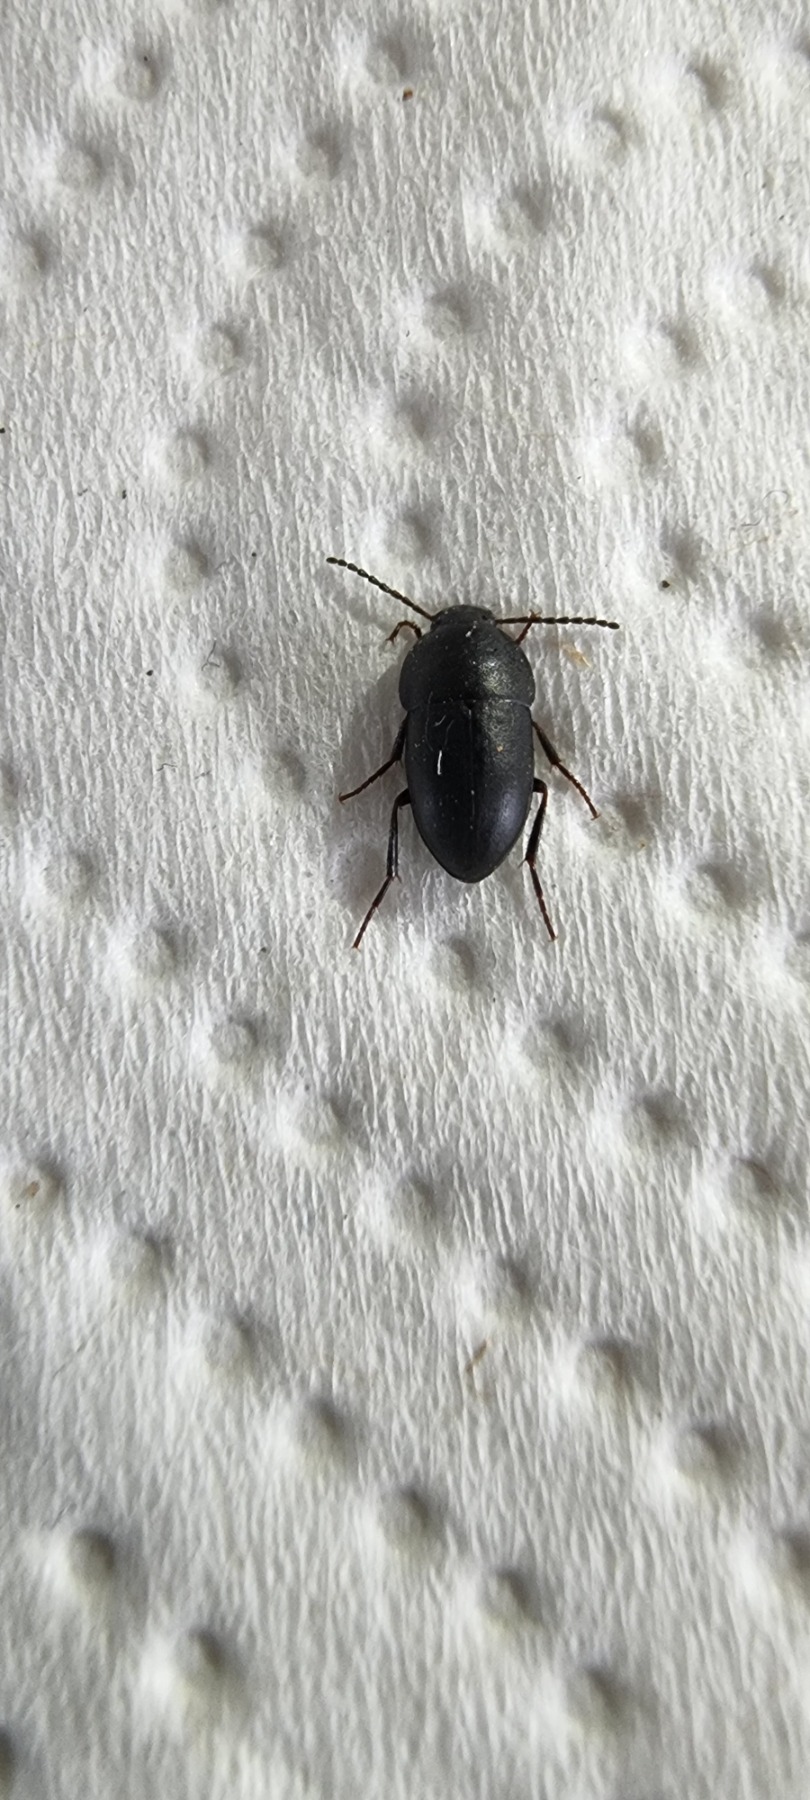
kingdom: Animalia
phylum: Arthropoda
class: Insecta
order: Coleoptera
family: Tenebrionidae
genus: Crypticus
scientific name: Crypticus quisquilius
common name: Sandskyggebille
